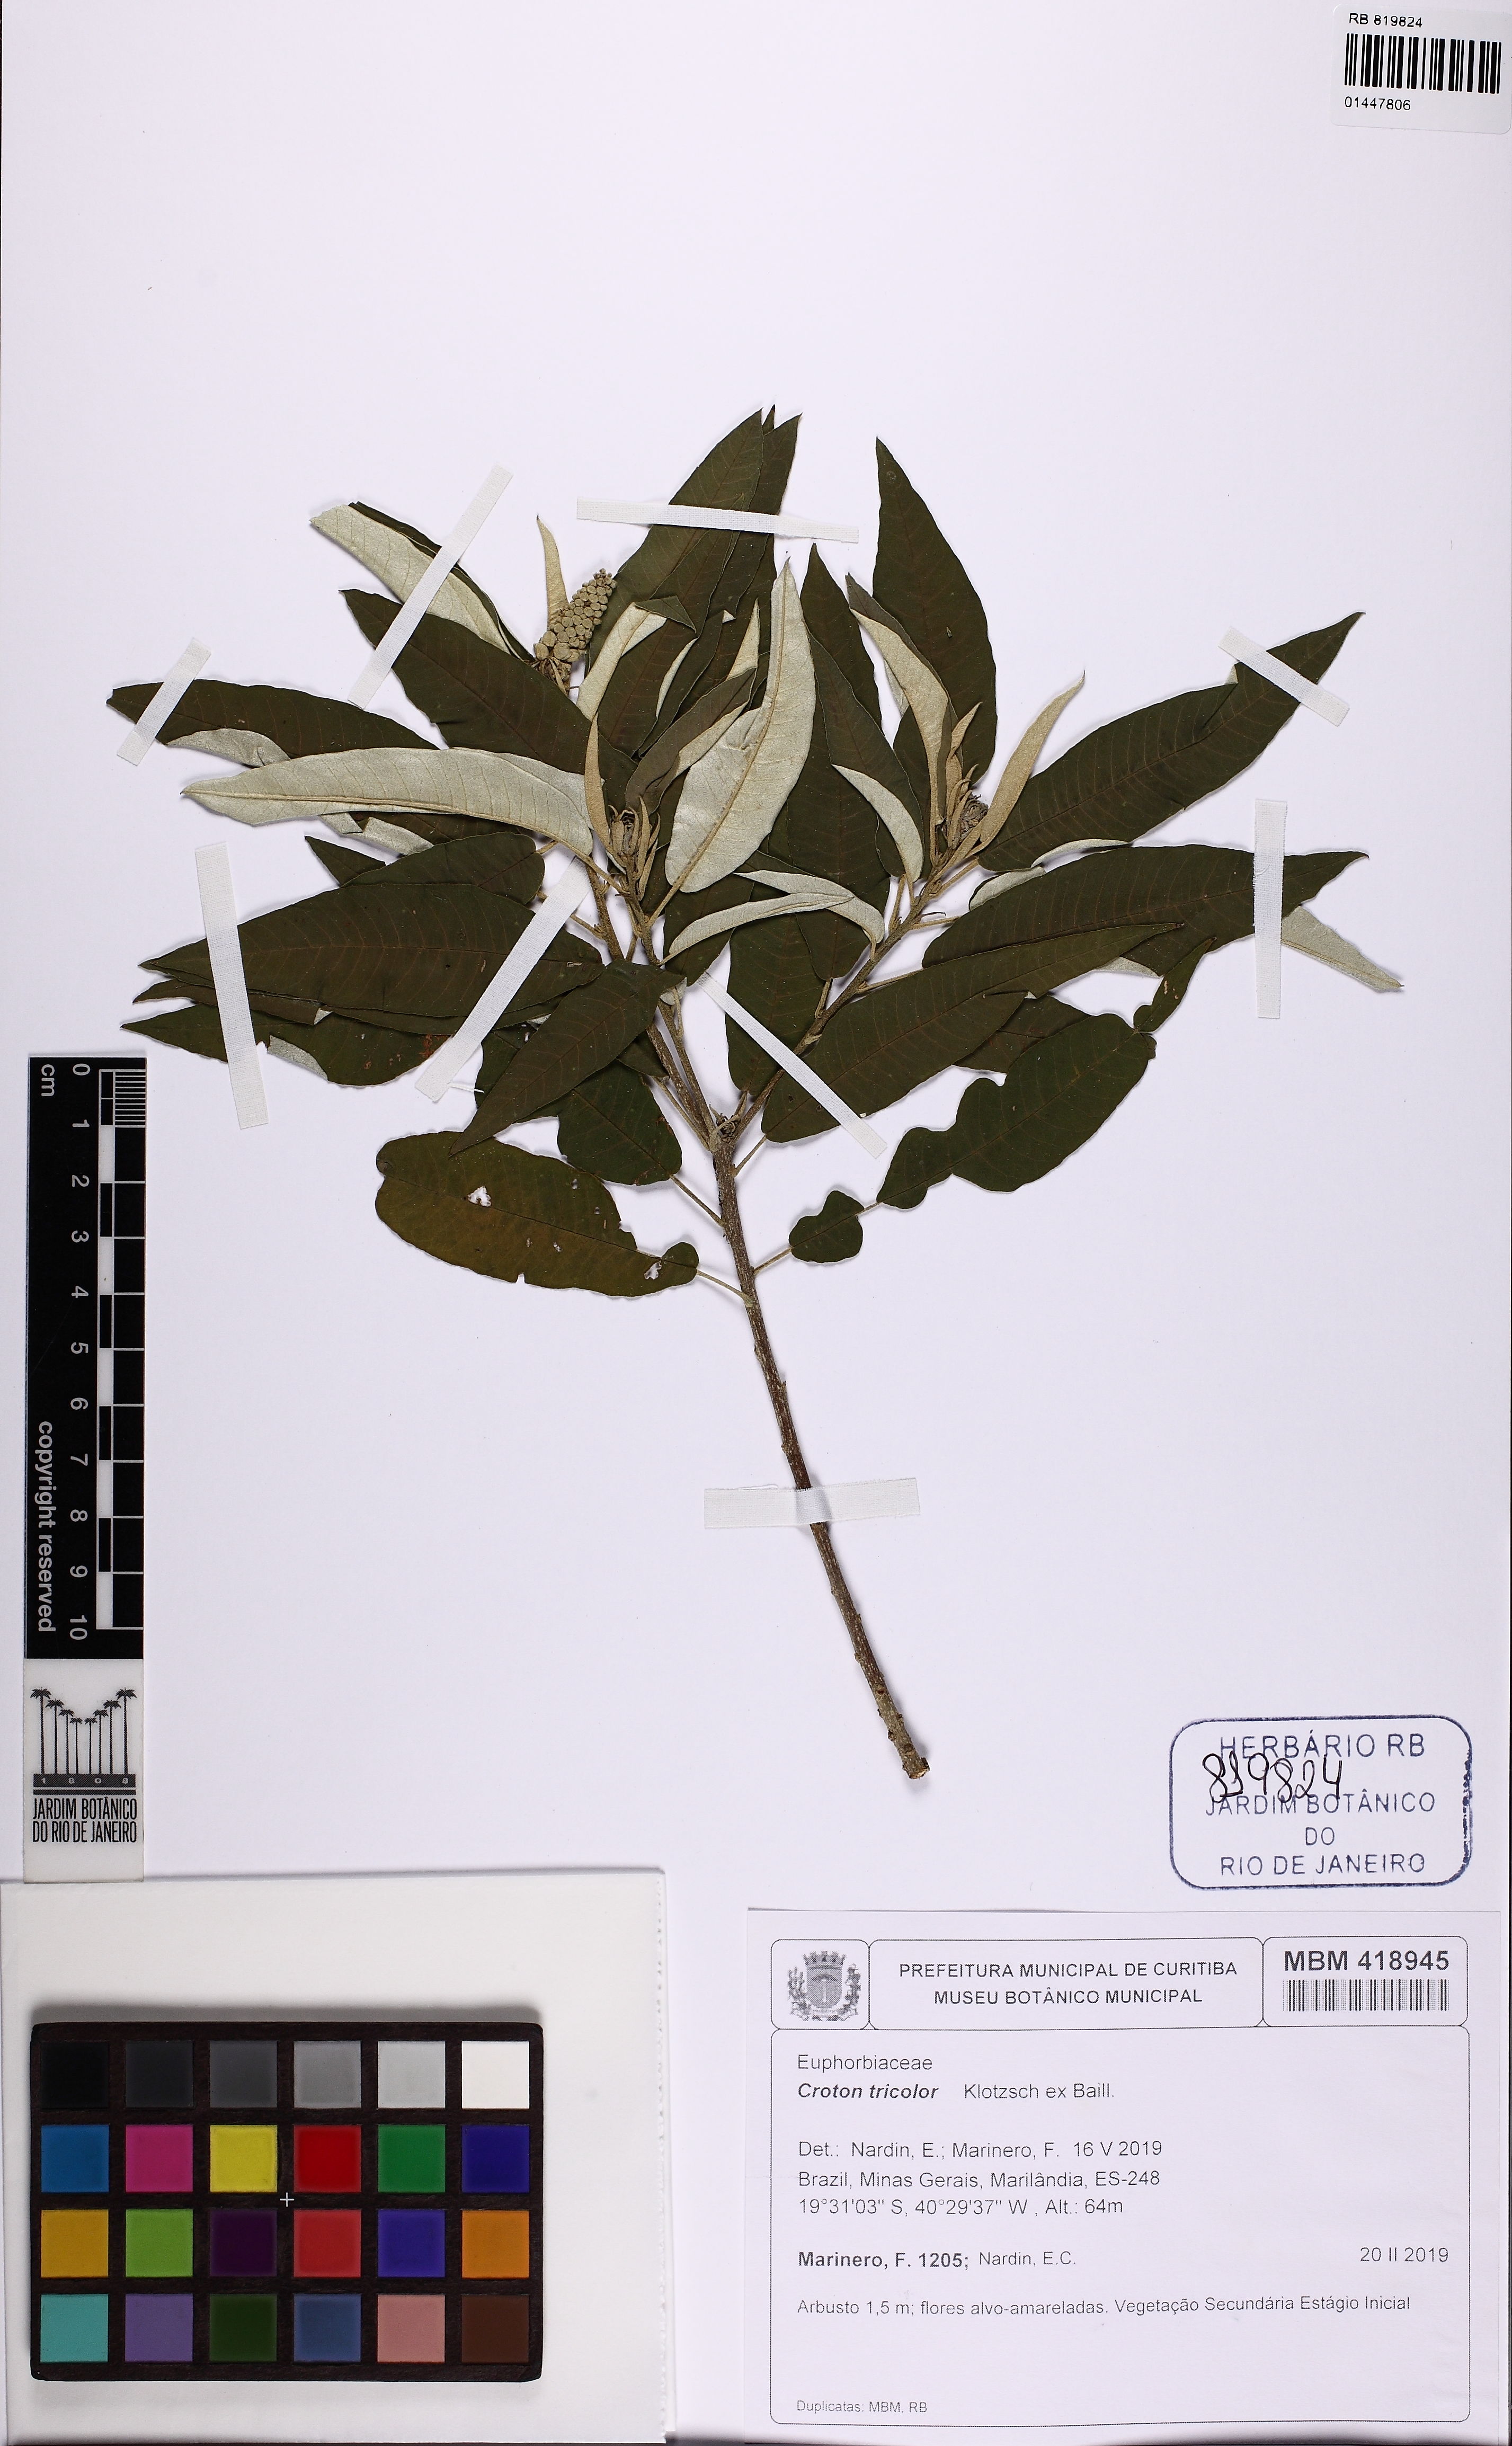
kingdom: Plantae
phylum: Tracheophyta
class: Magnoliopsida
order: Malpighiales
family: Euphorbiaceae
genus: Croton
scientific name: Croton tricolor
